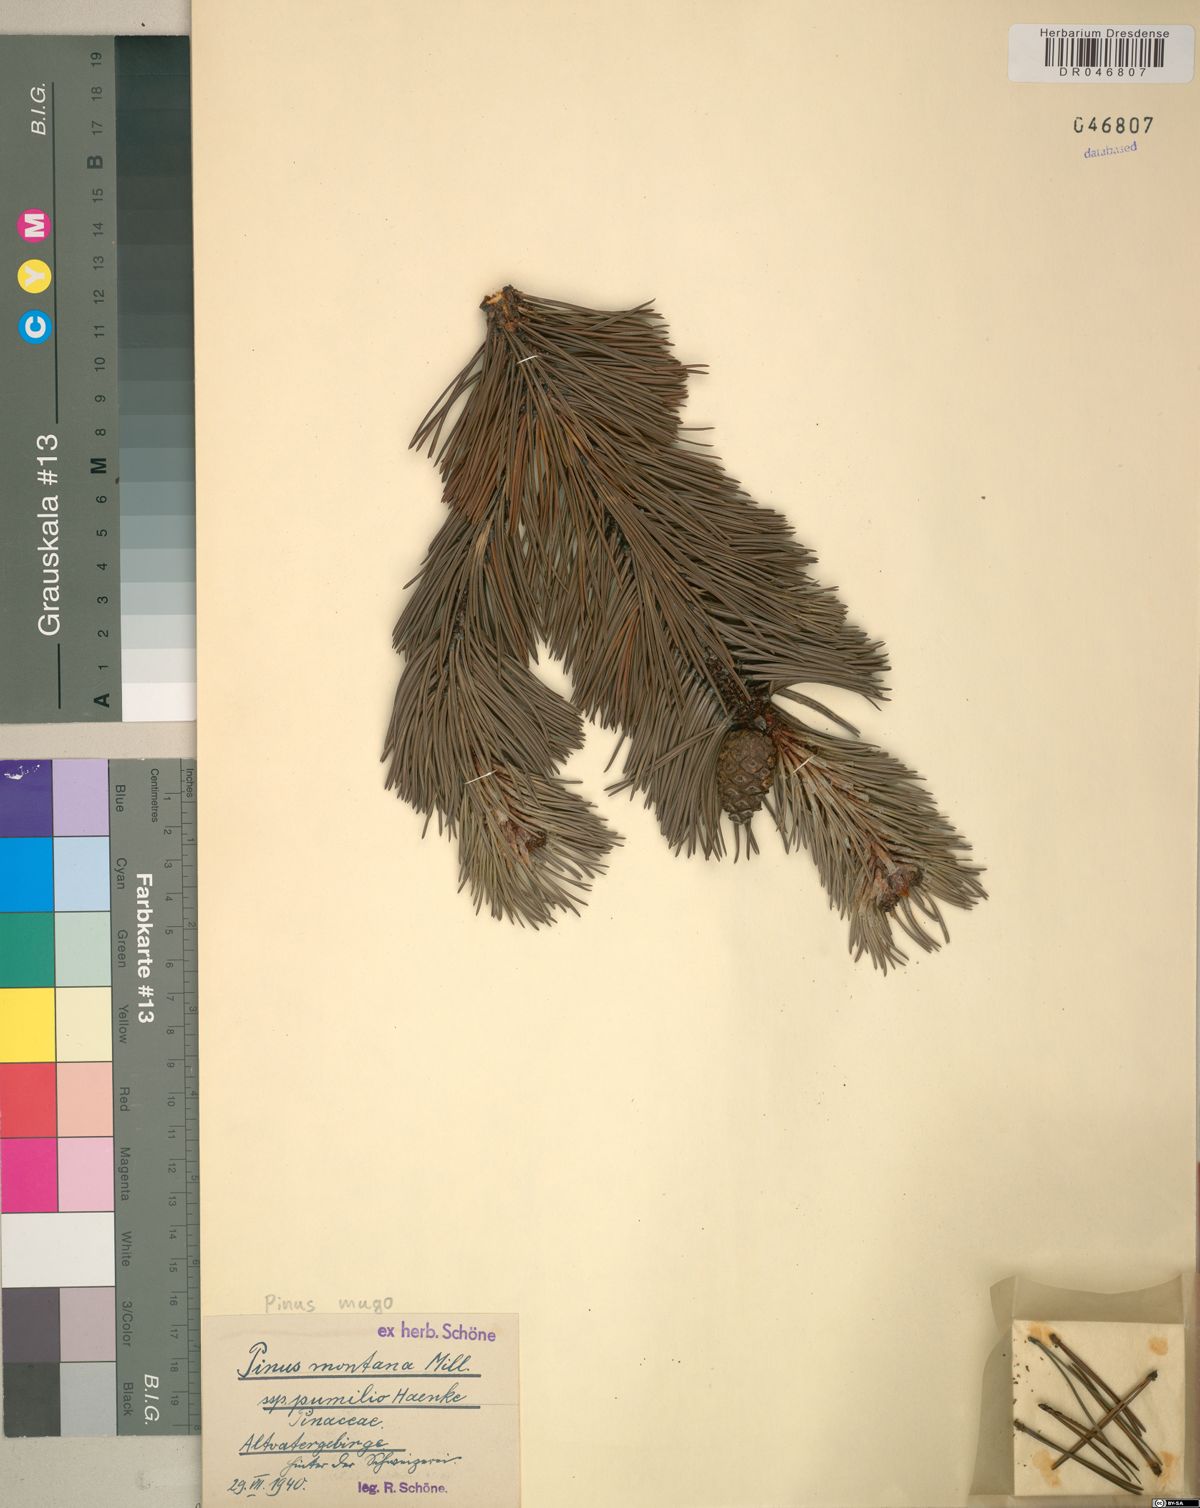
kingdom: Plantae
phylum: Tracheophyta
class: Pinopsida
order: Pinales
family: Pinaceae
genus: Pinus
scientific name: Pinus mugo
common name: Mugo pine
